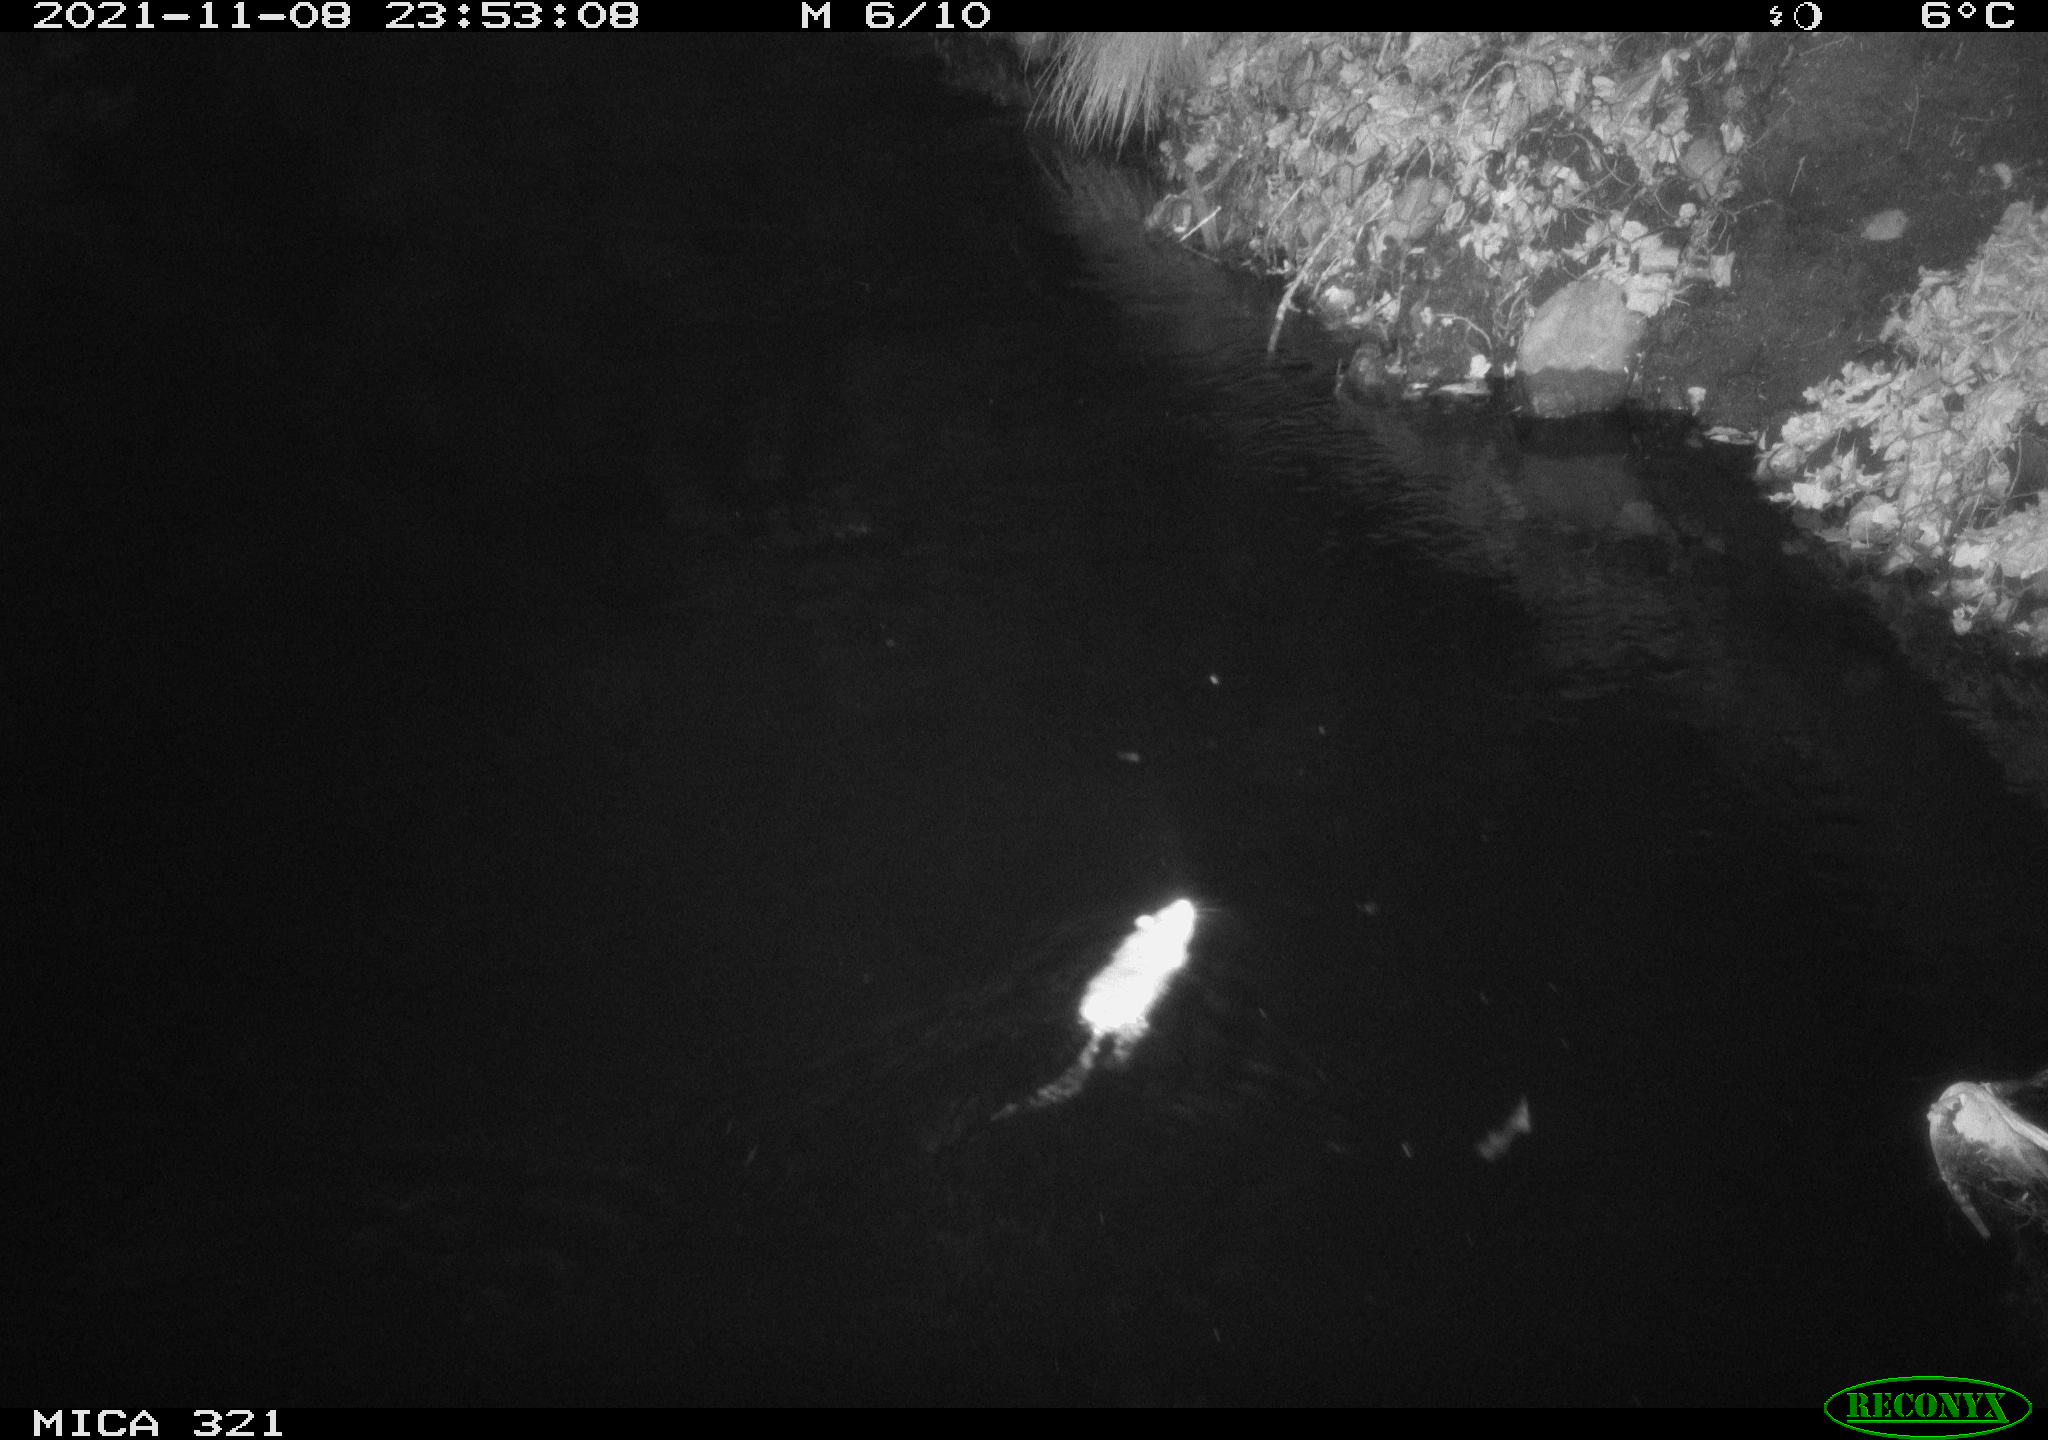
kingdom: Animalia
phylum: Chordata
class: Mammalia
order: Rodentia
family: Muridae
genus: Rattus
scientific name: Rattus norvegicus
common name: Brown rat
